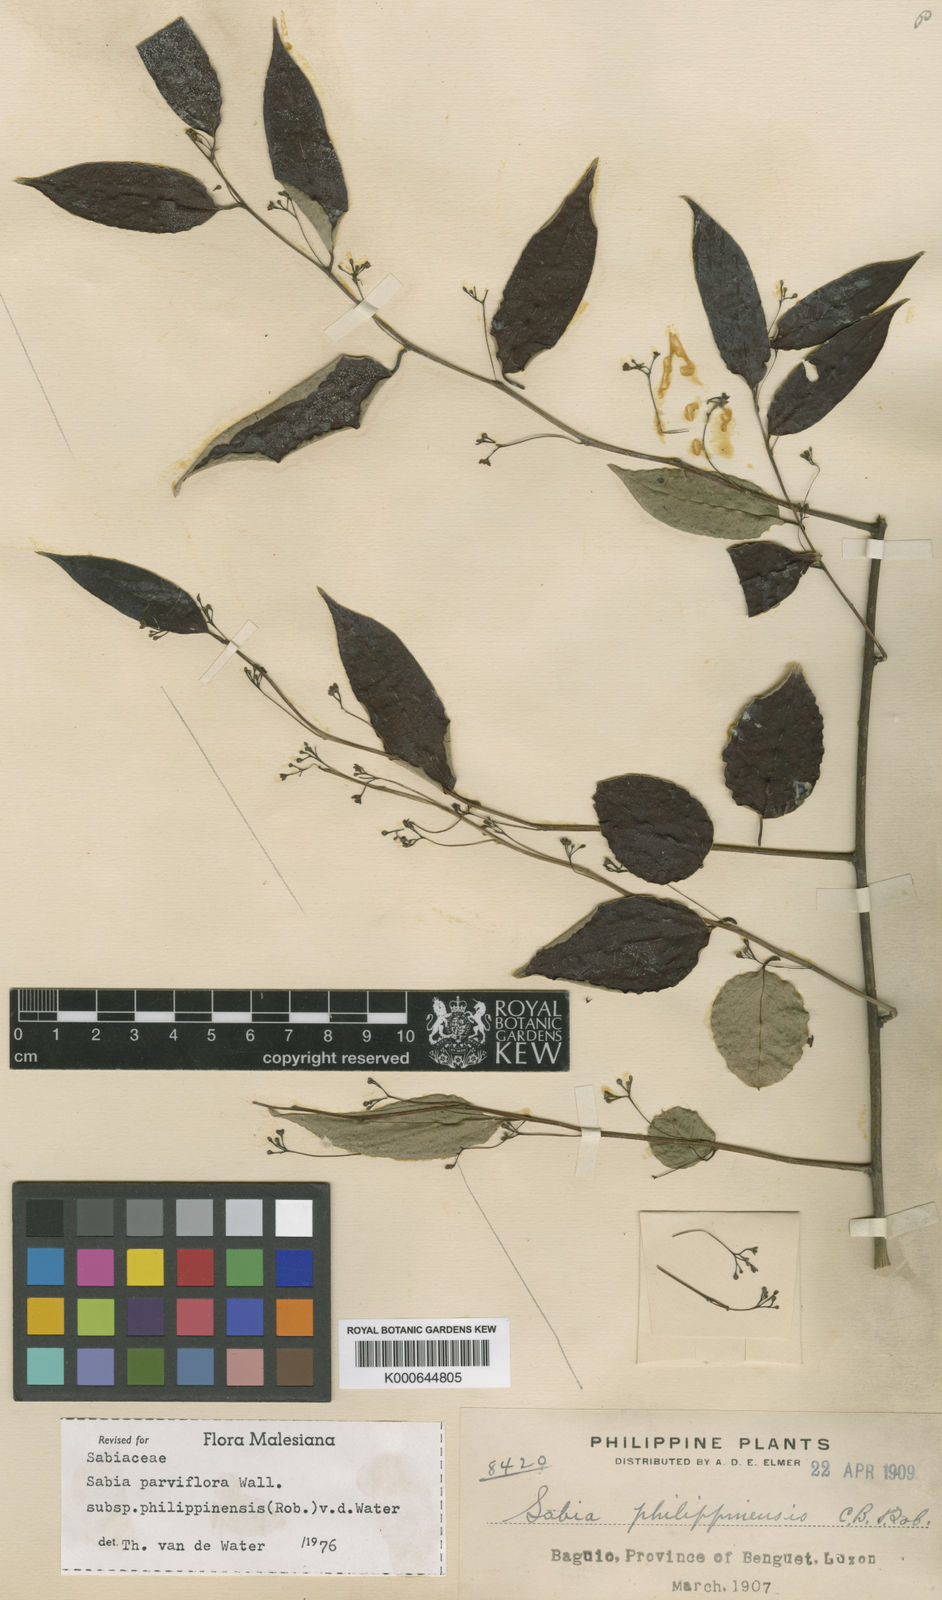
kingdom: Plantae
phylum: Tracheophyta
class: Magnoliopsida
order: Proteales
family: Sabiaceae
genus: Sabia
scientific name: Sabia parviflora
